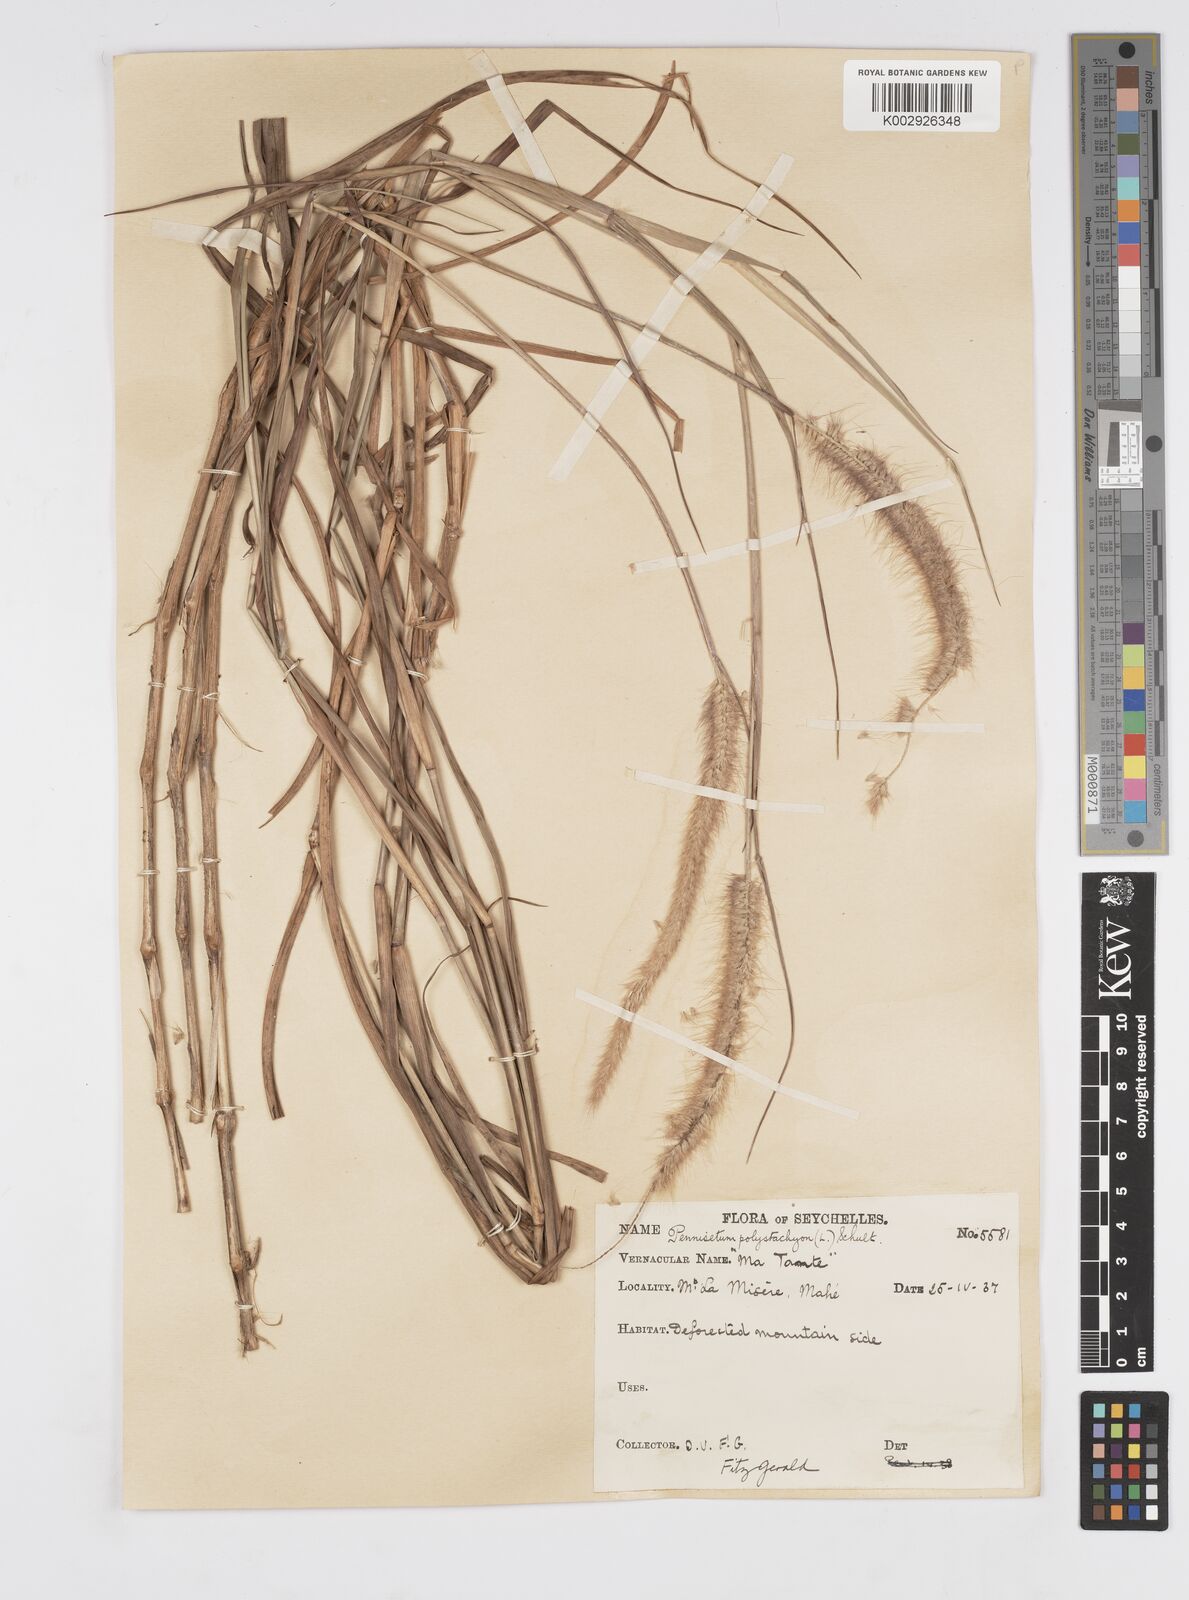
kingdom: Plantae
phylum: Tracheophyta
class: Liliopsida
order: Poales
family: Poaceae
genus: Setaria
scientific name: Setaria parviflora
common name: Knotroot bristle-grass
